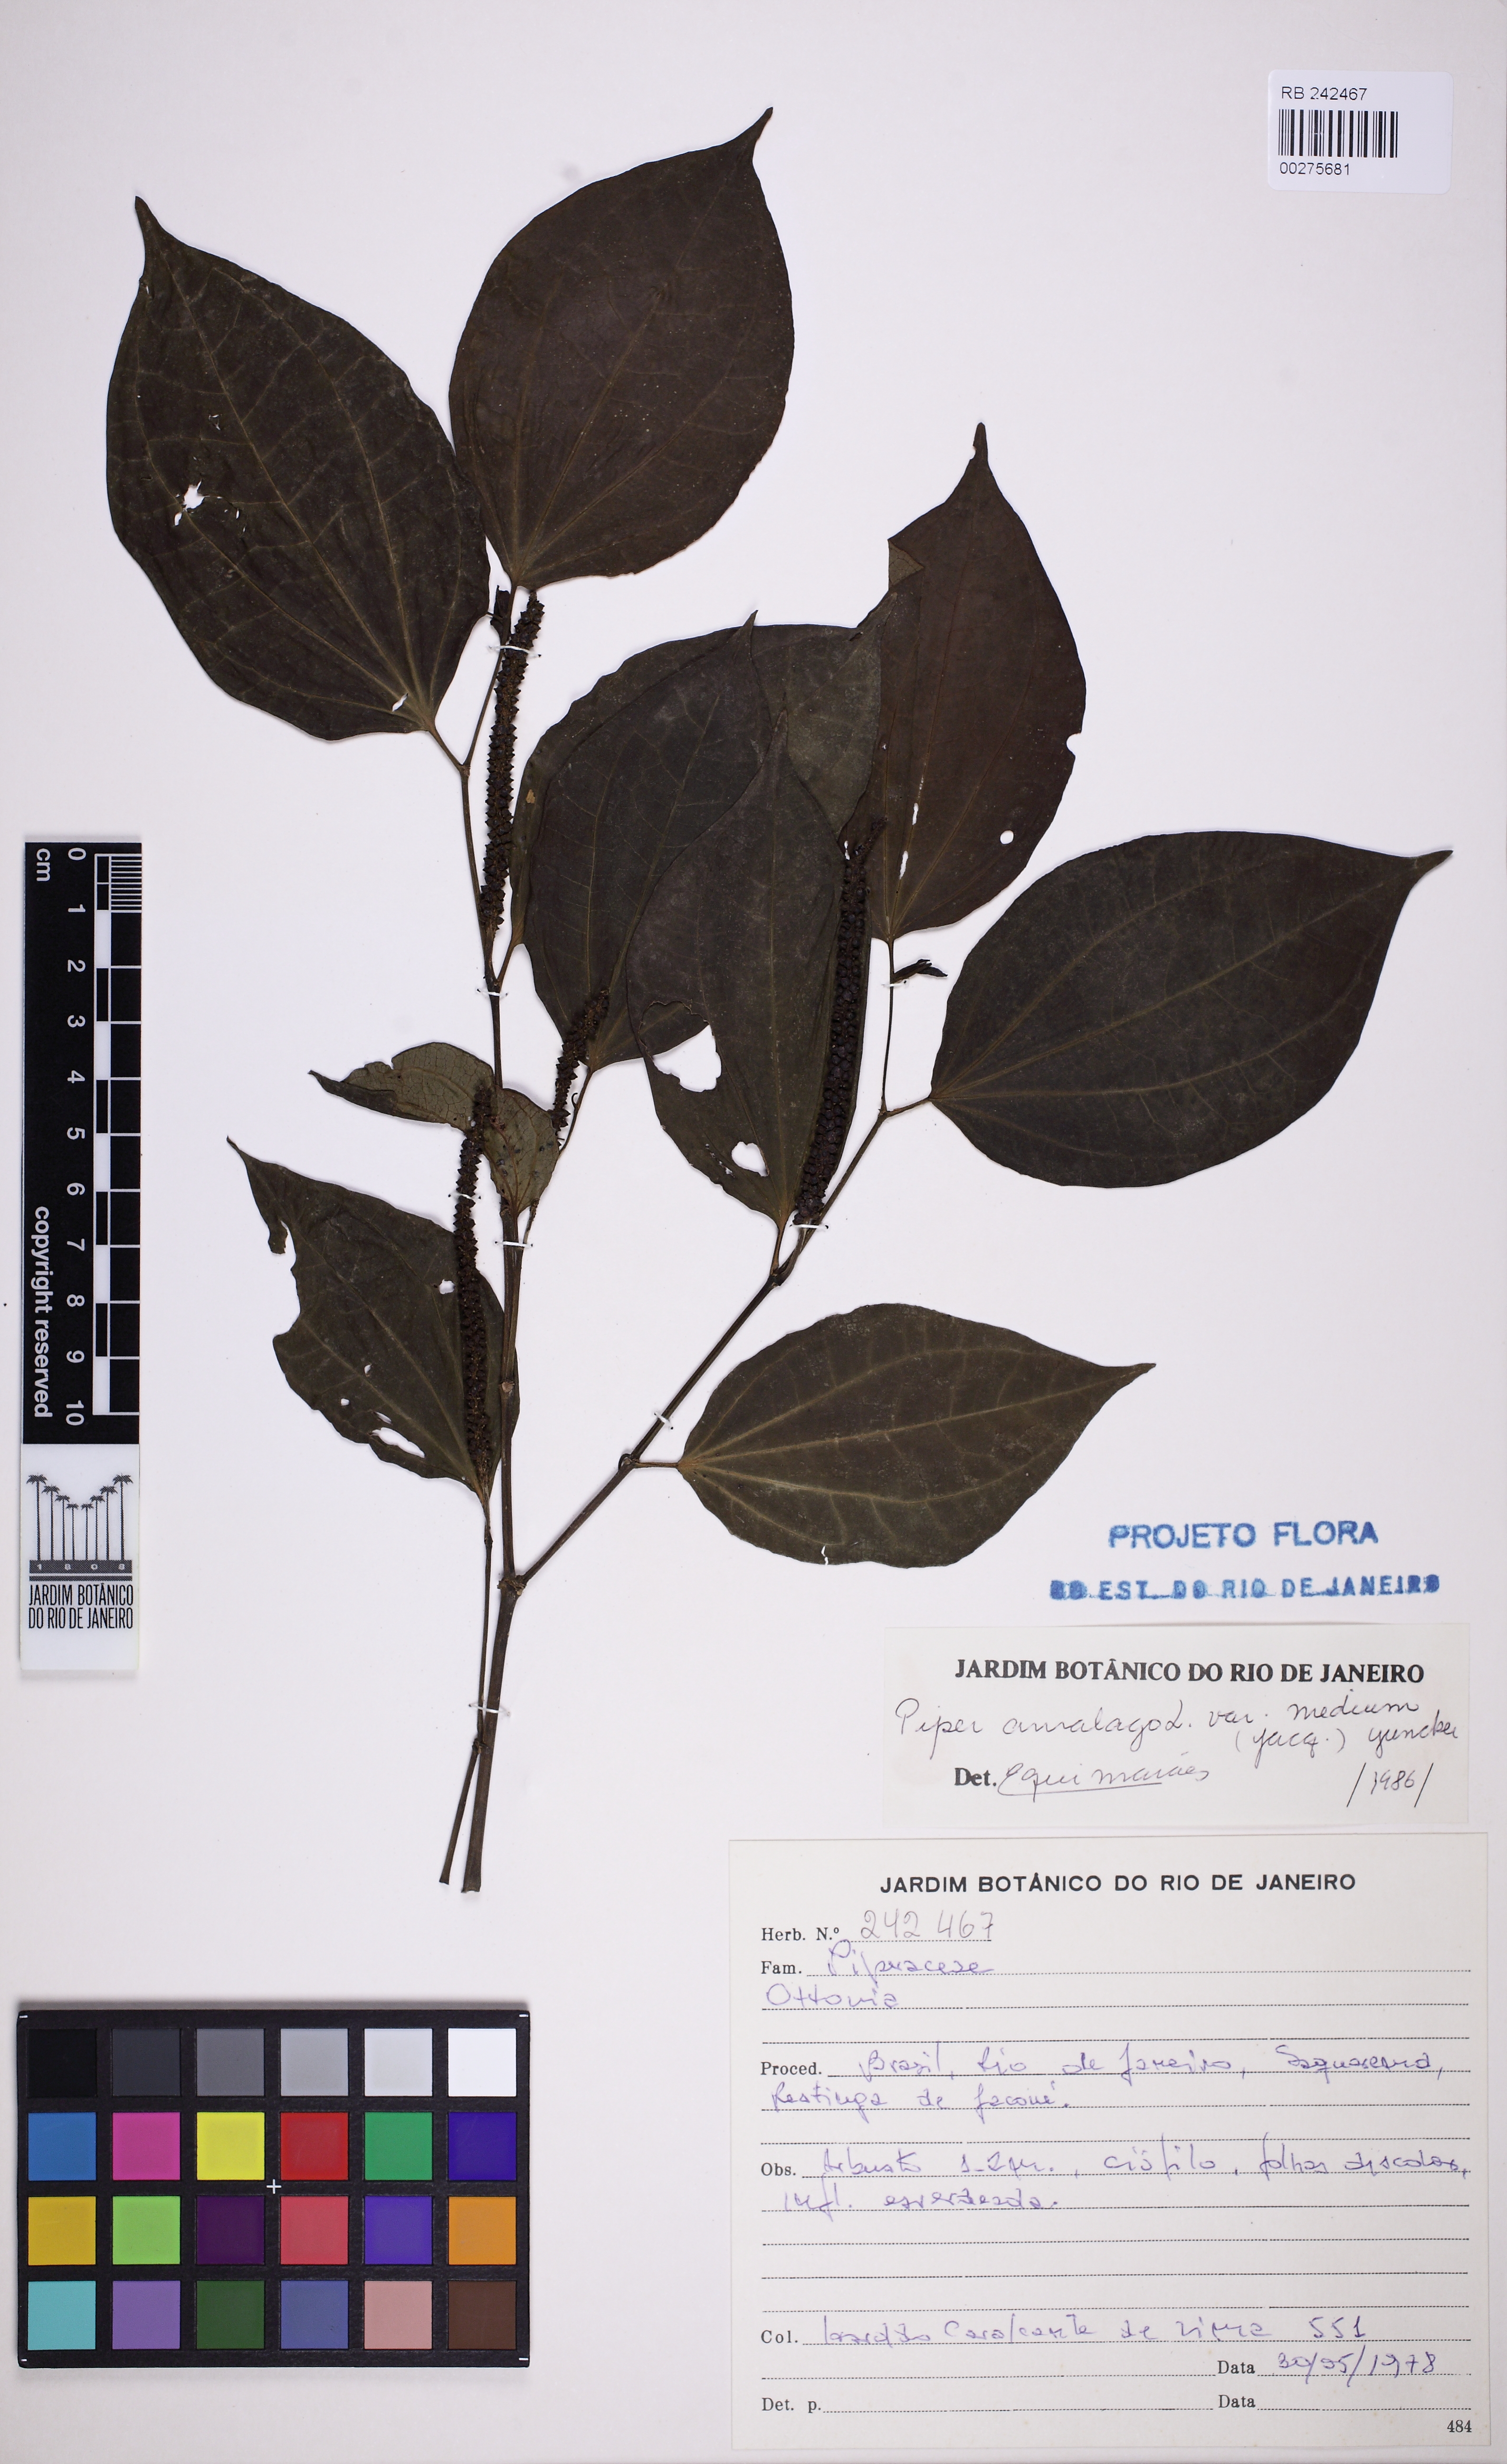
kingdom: Plantae
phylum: Tracheophyta
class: Magnoliopsida
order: Piperales
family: Piperaceae
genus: Piper
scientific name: Piper amalago
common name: Pepper-elder
